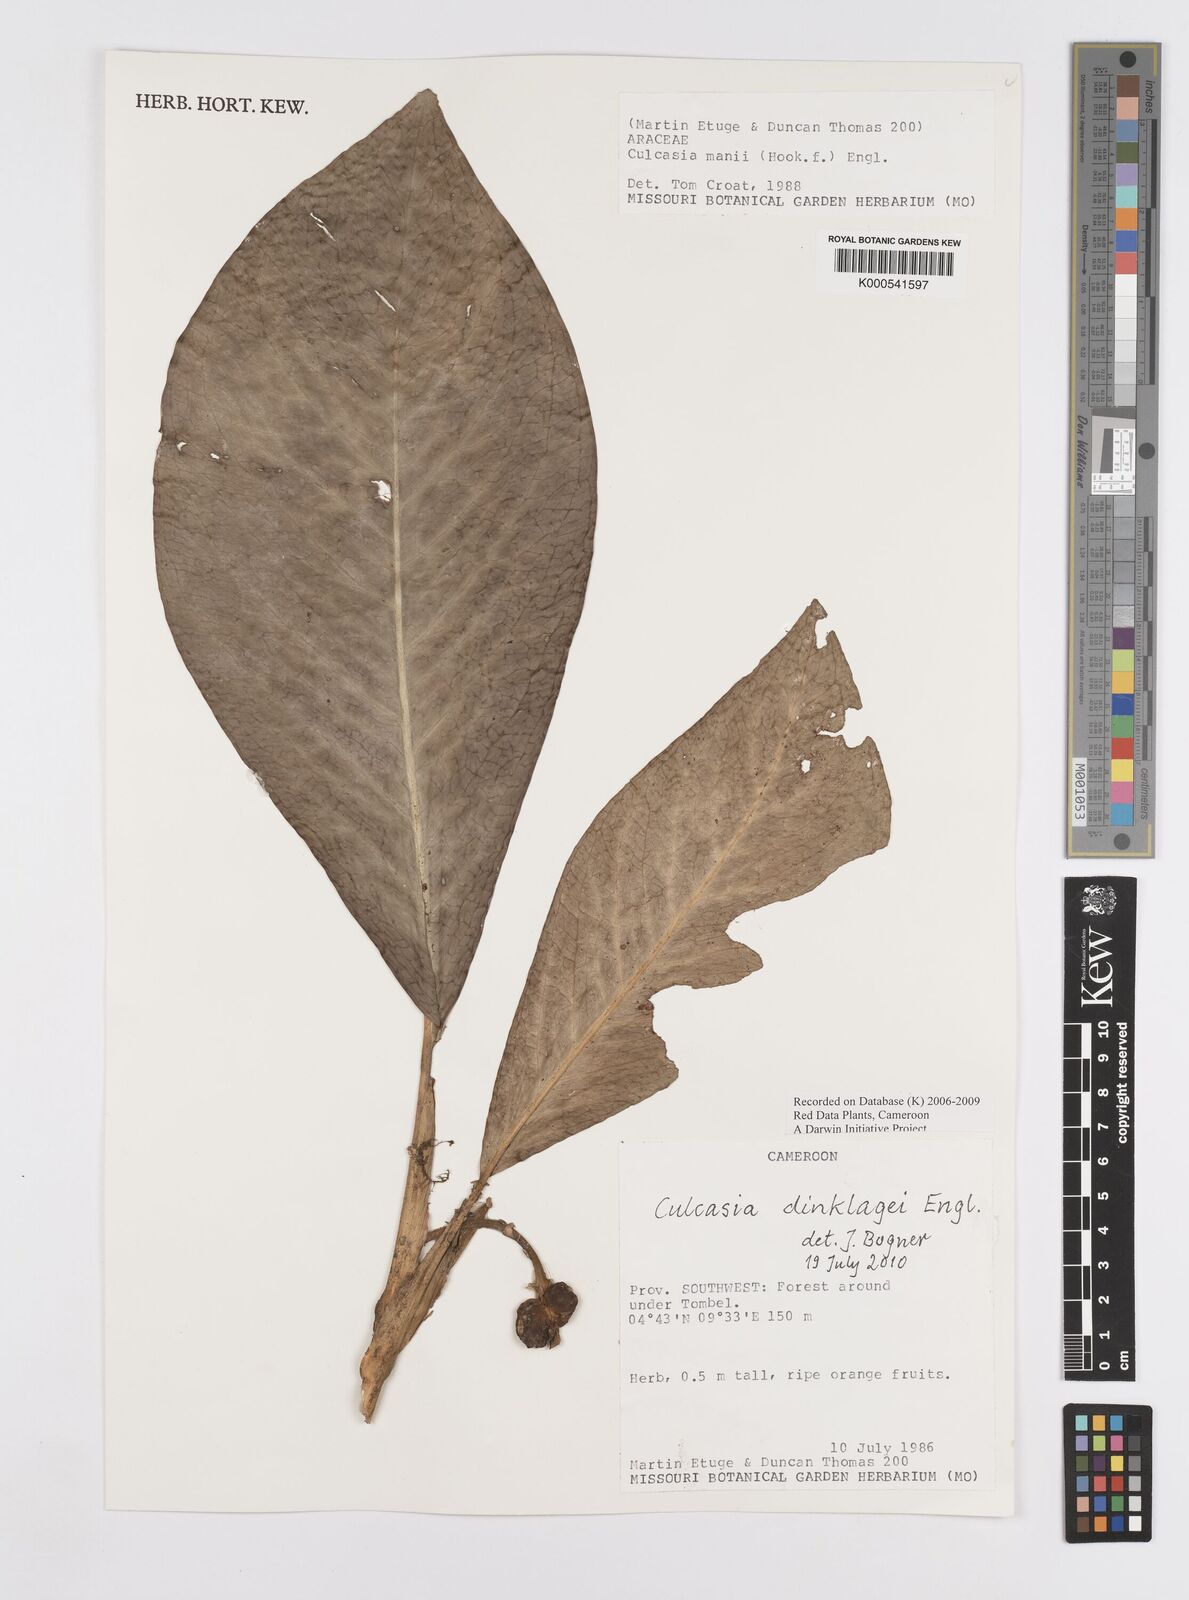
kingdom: Plantae
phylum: Tracheophyta
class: Liliopsida
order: Alismatales
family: Araceae
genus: Culcasia
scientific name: Culcasia dinklagei
